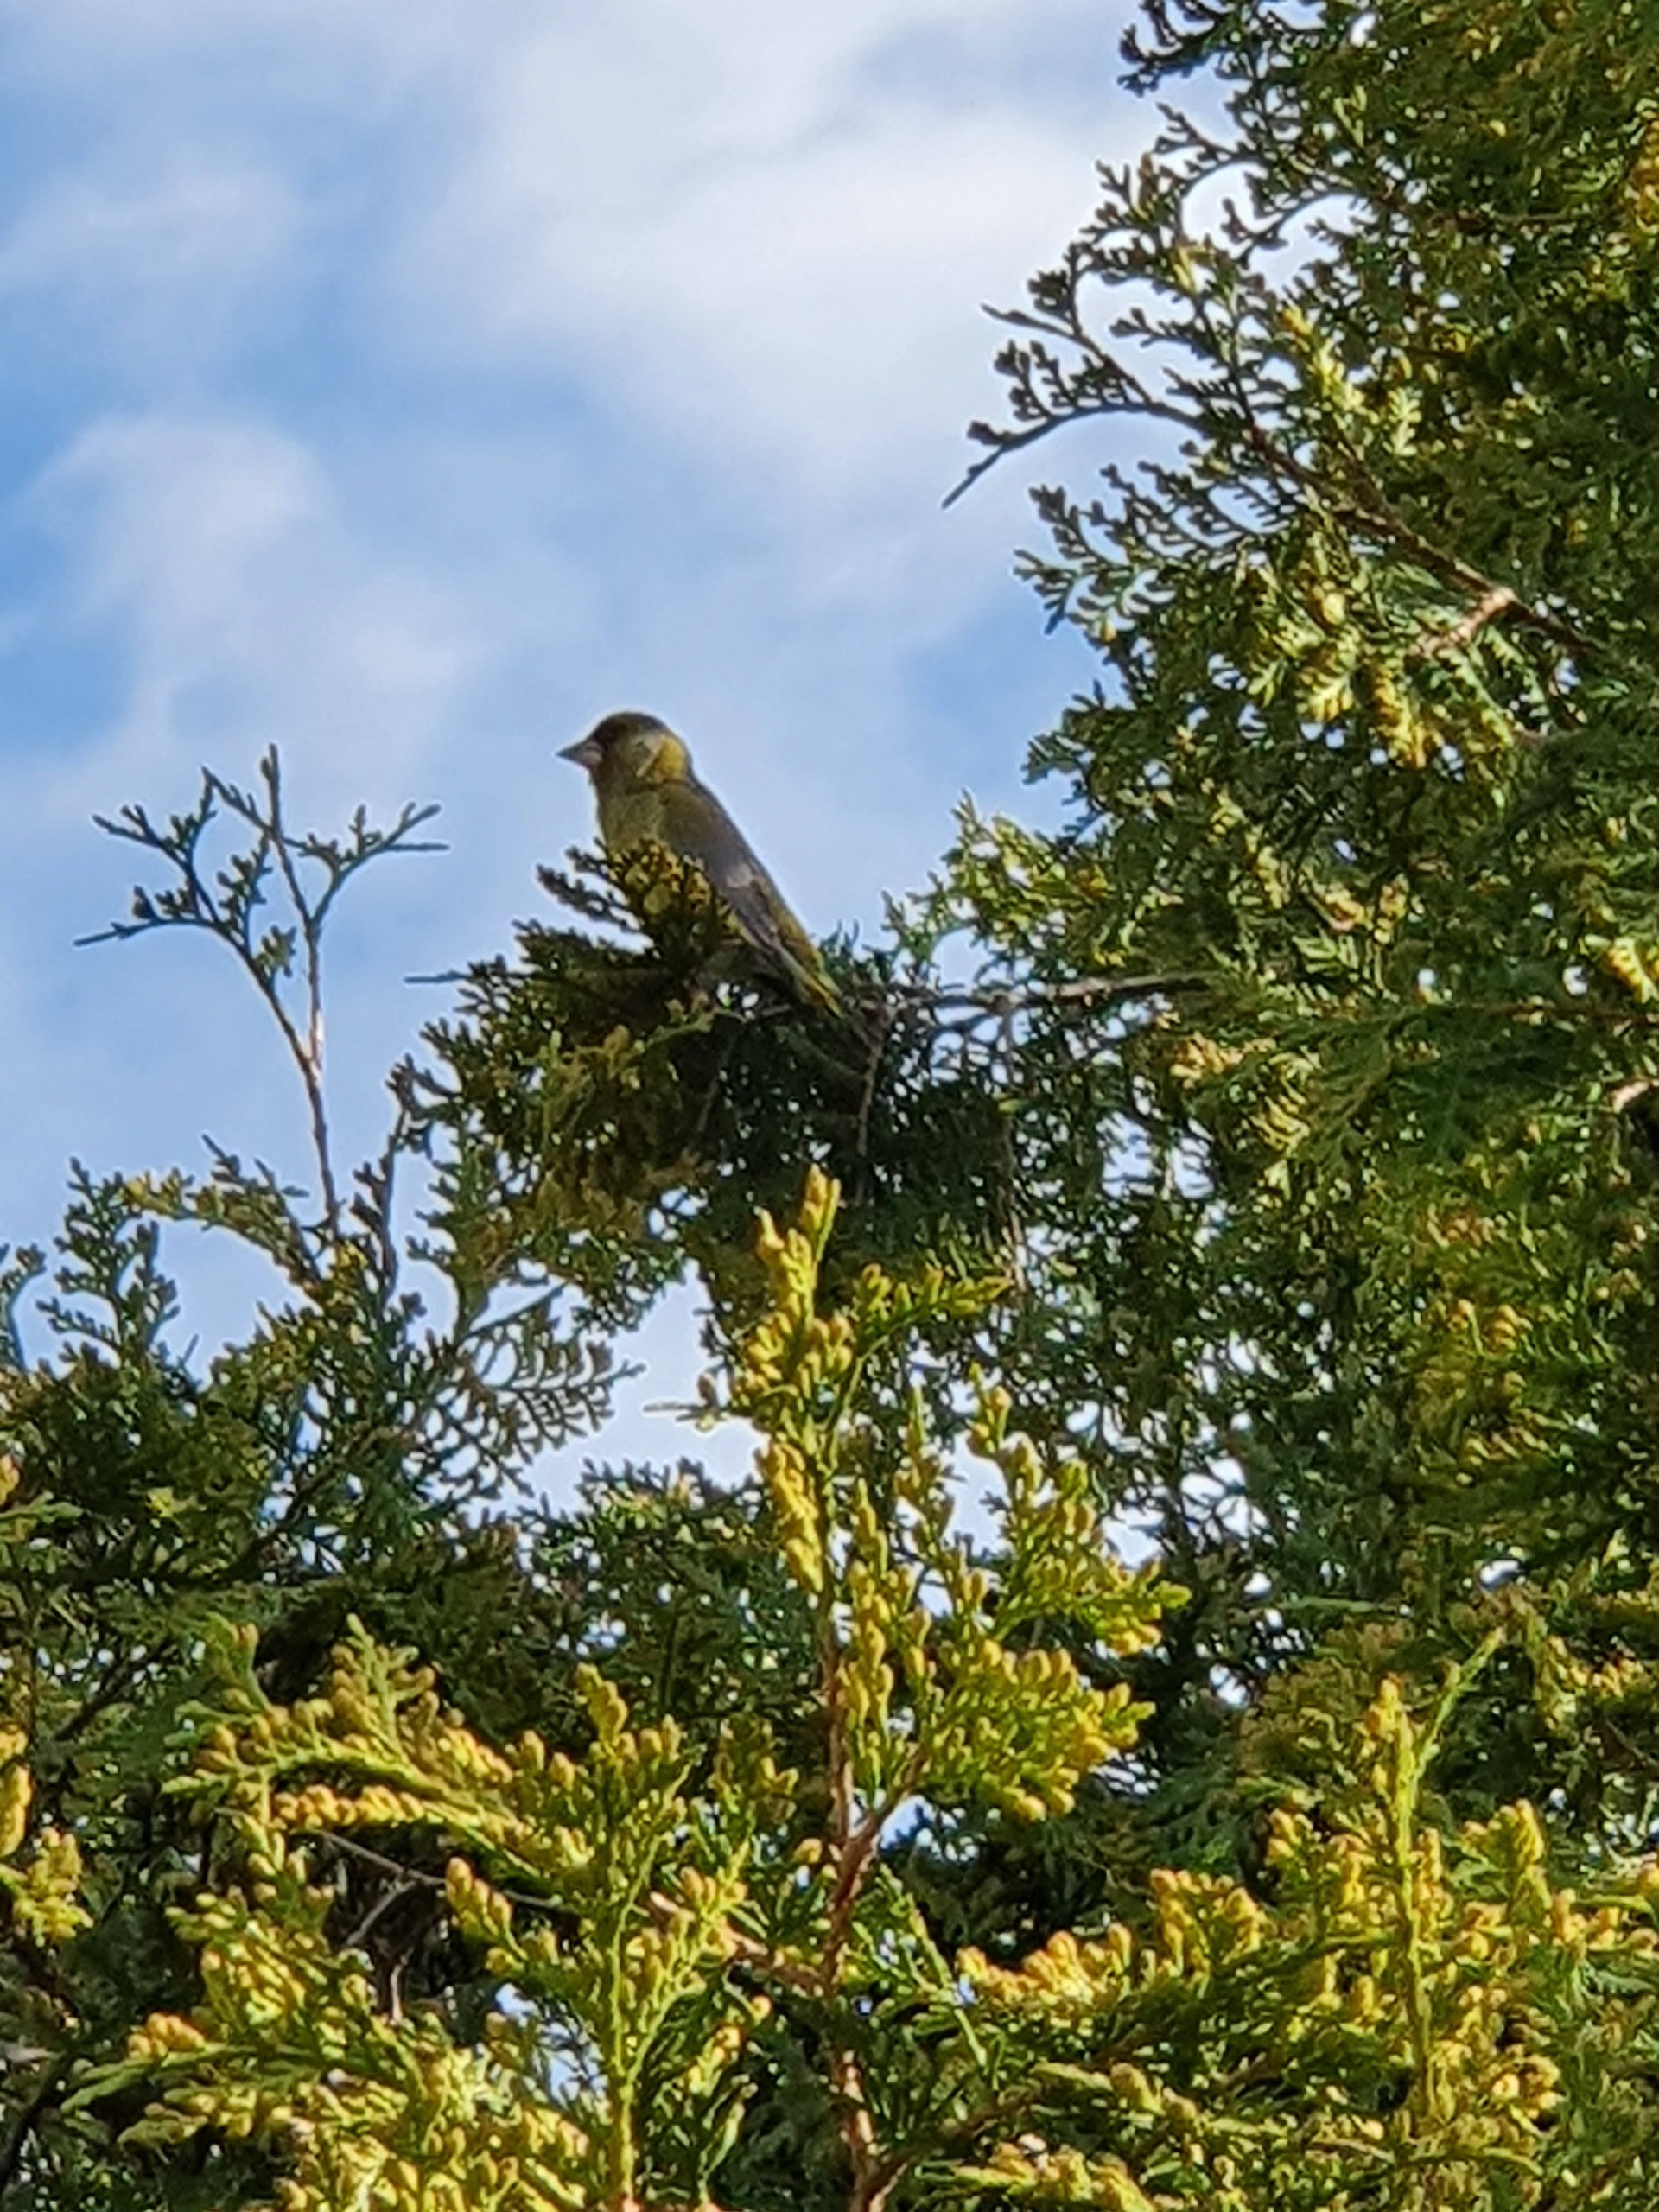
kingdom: Plantae
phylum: Tracheophyta
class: Liliopsida
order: Poales
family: Poaceae
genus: Chloris
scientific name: Chloris chloris
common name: Grønirisk
